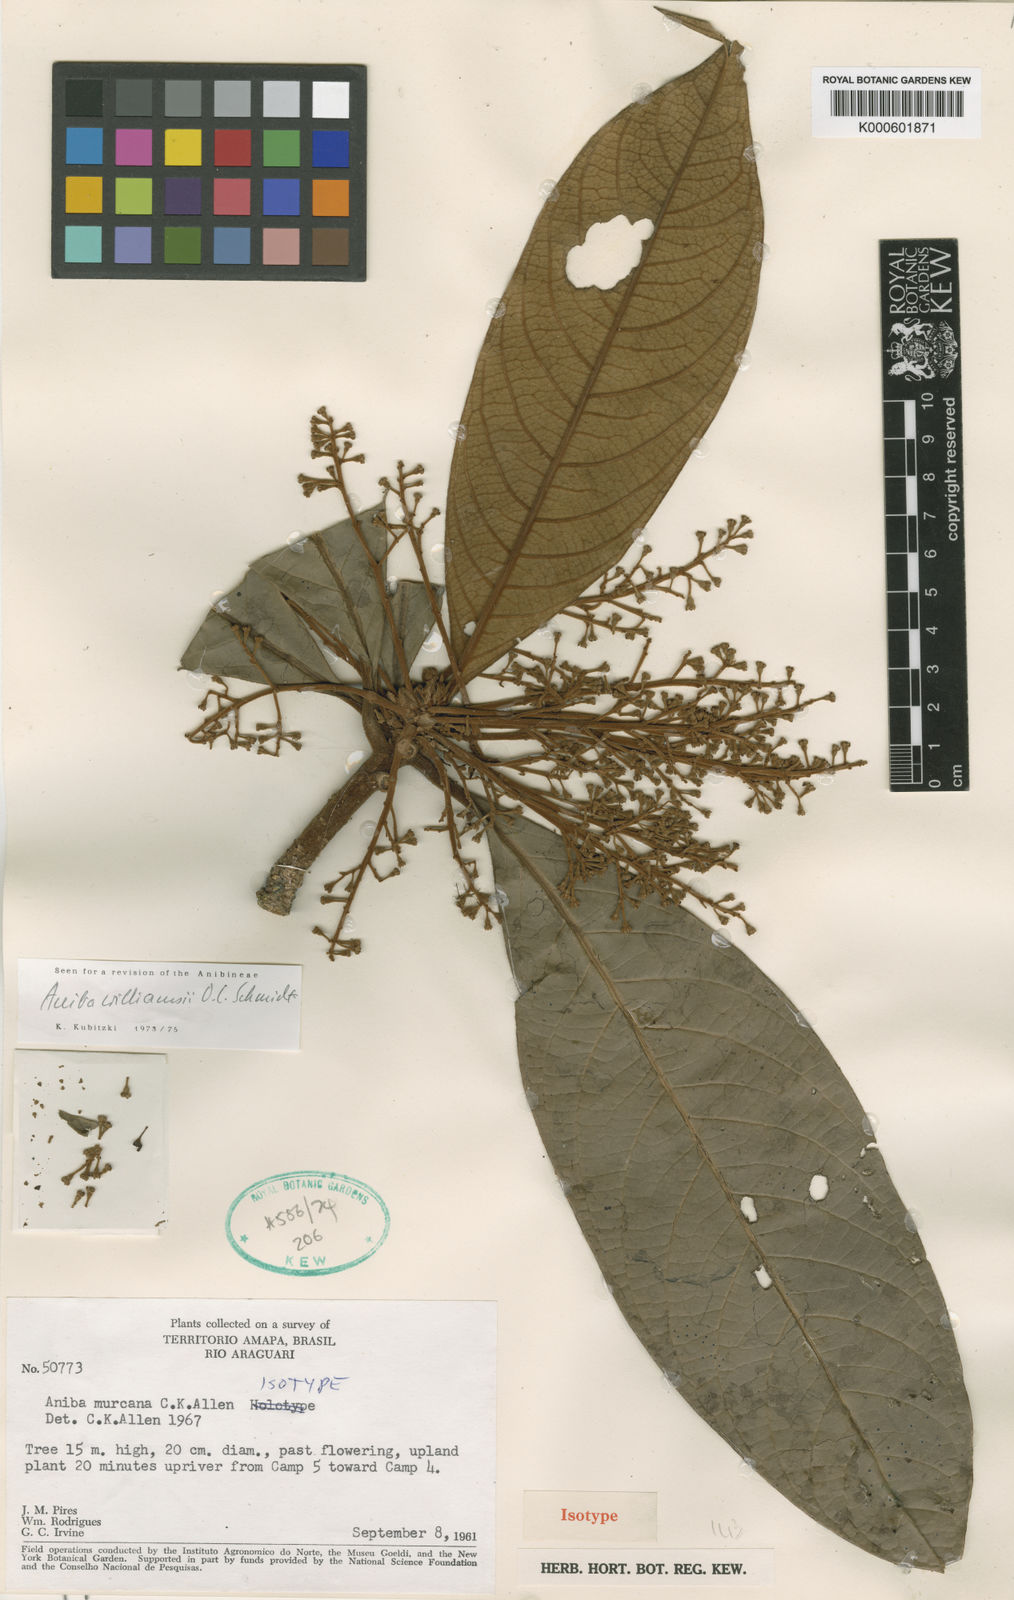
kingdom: Plantae
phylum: Tracheophyta
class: Magnoliopsida
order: Laurales
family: Lauraceae
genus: Aniba
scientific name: Aniba williamsii
